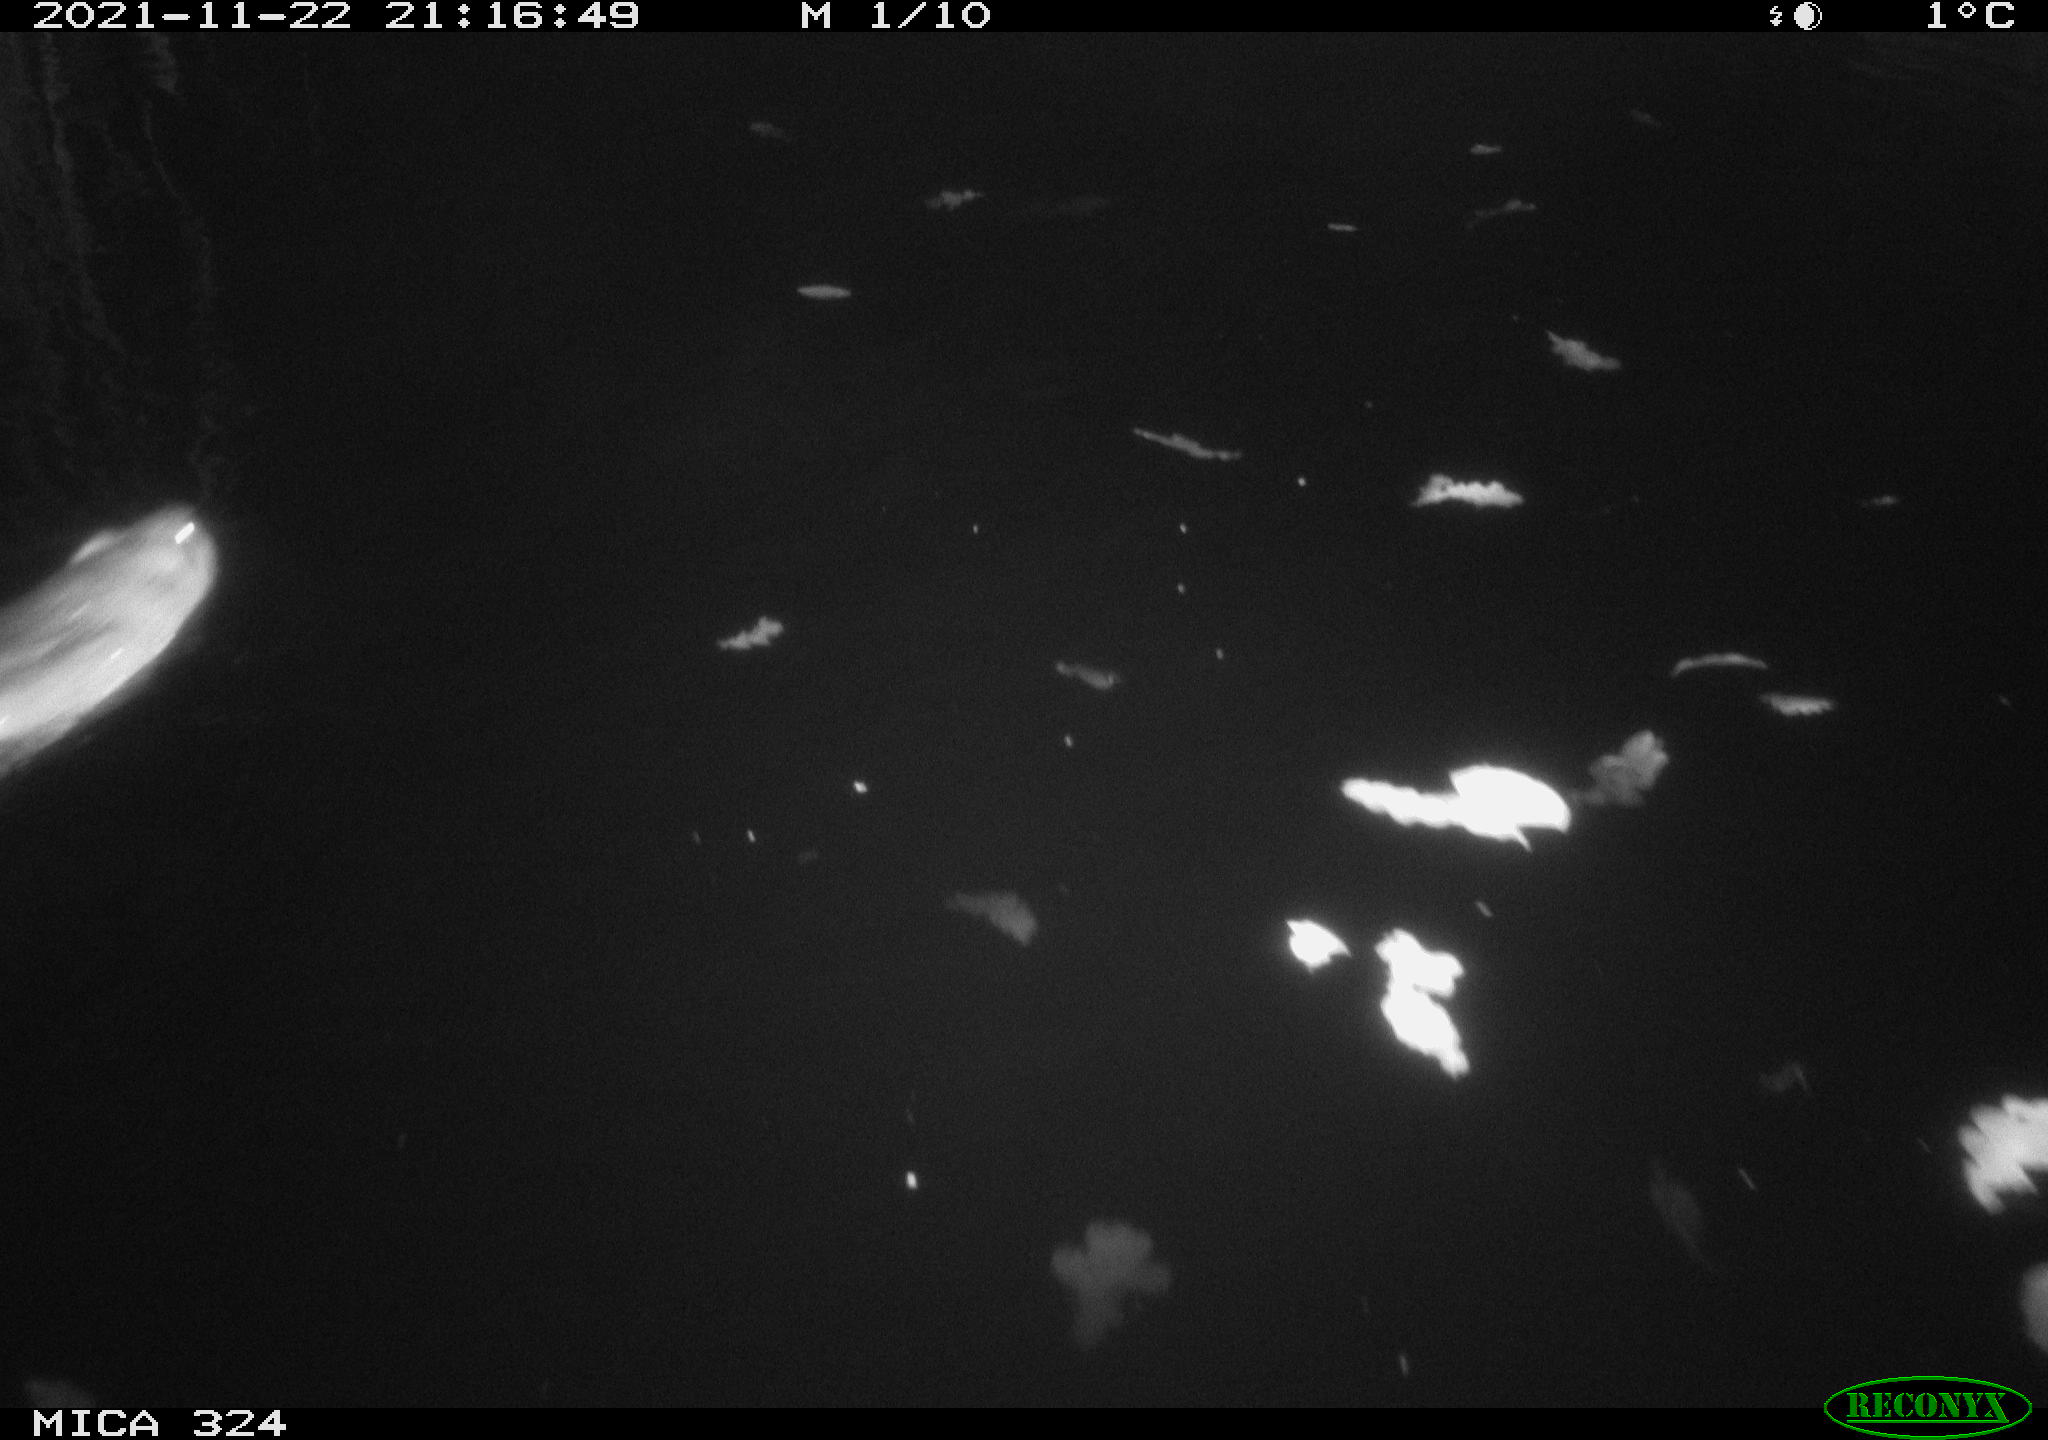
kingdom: Animalia
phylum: Chordata
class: Mammalia
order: Rodentia
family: Cricetidae
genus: Ondatra
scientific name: Ondatra zibethicus
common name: Muskrat
